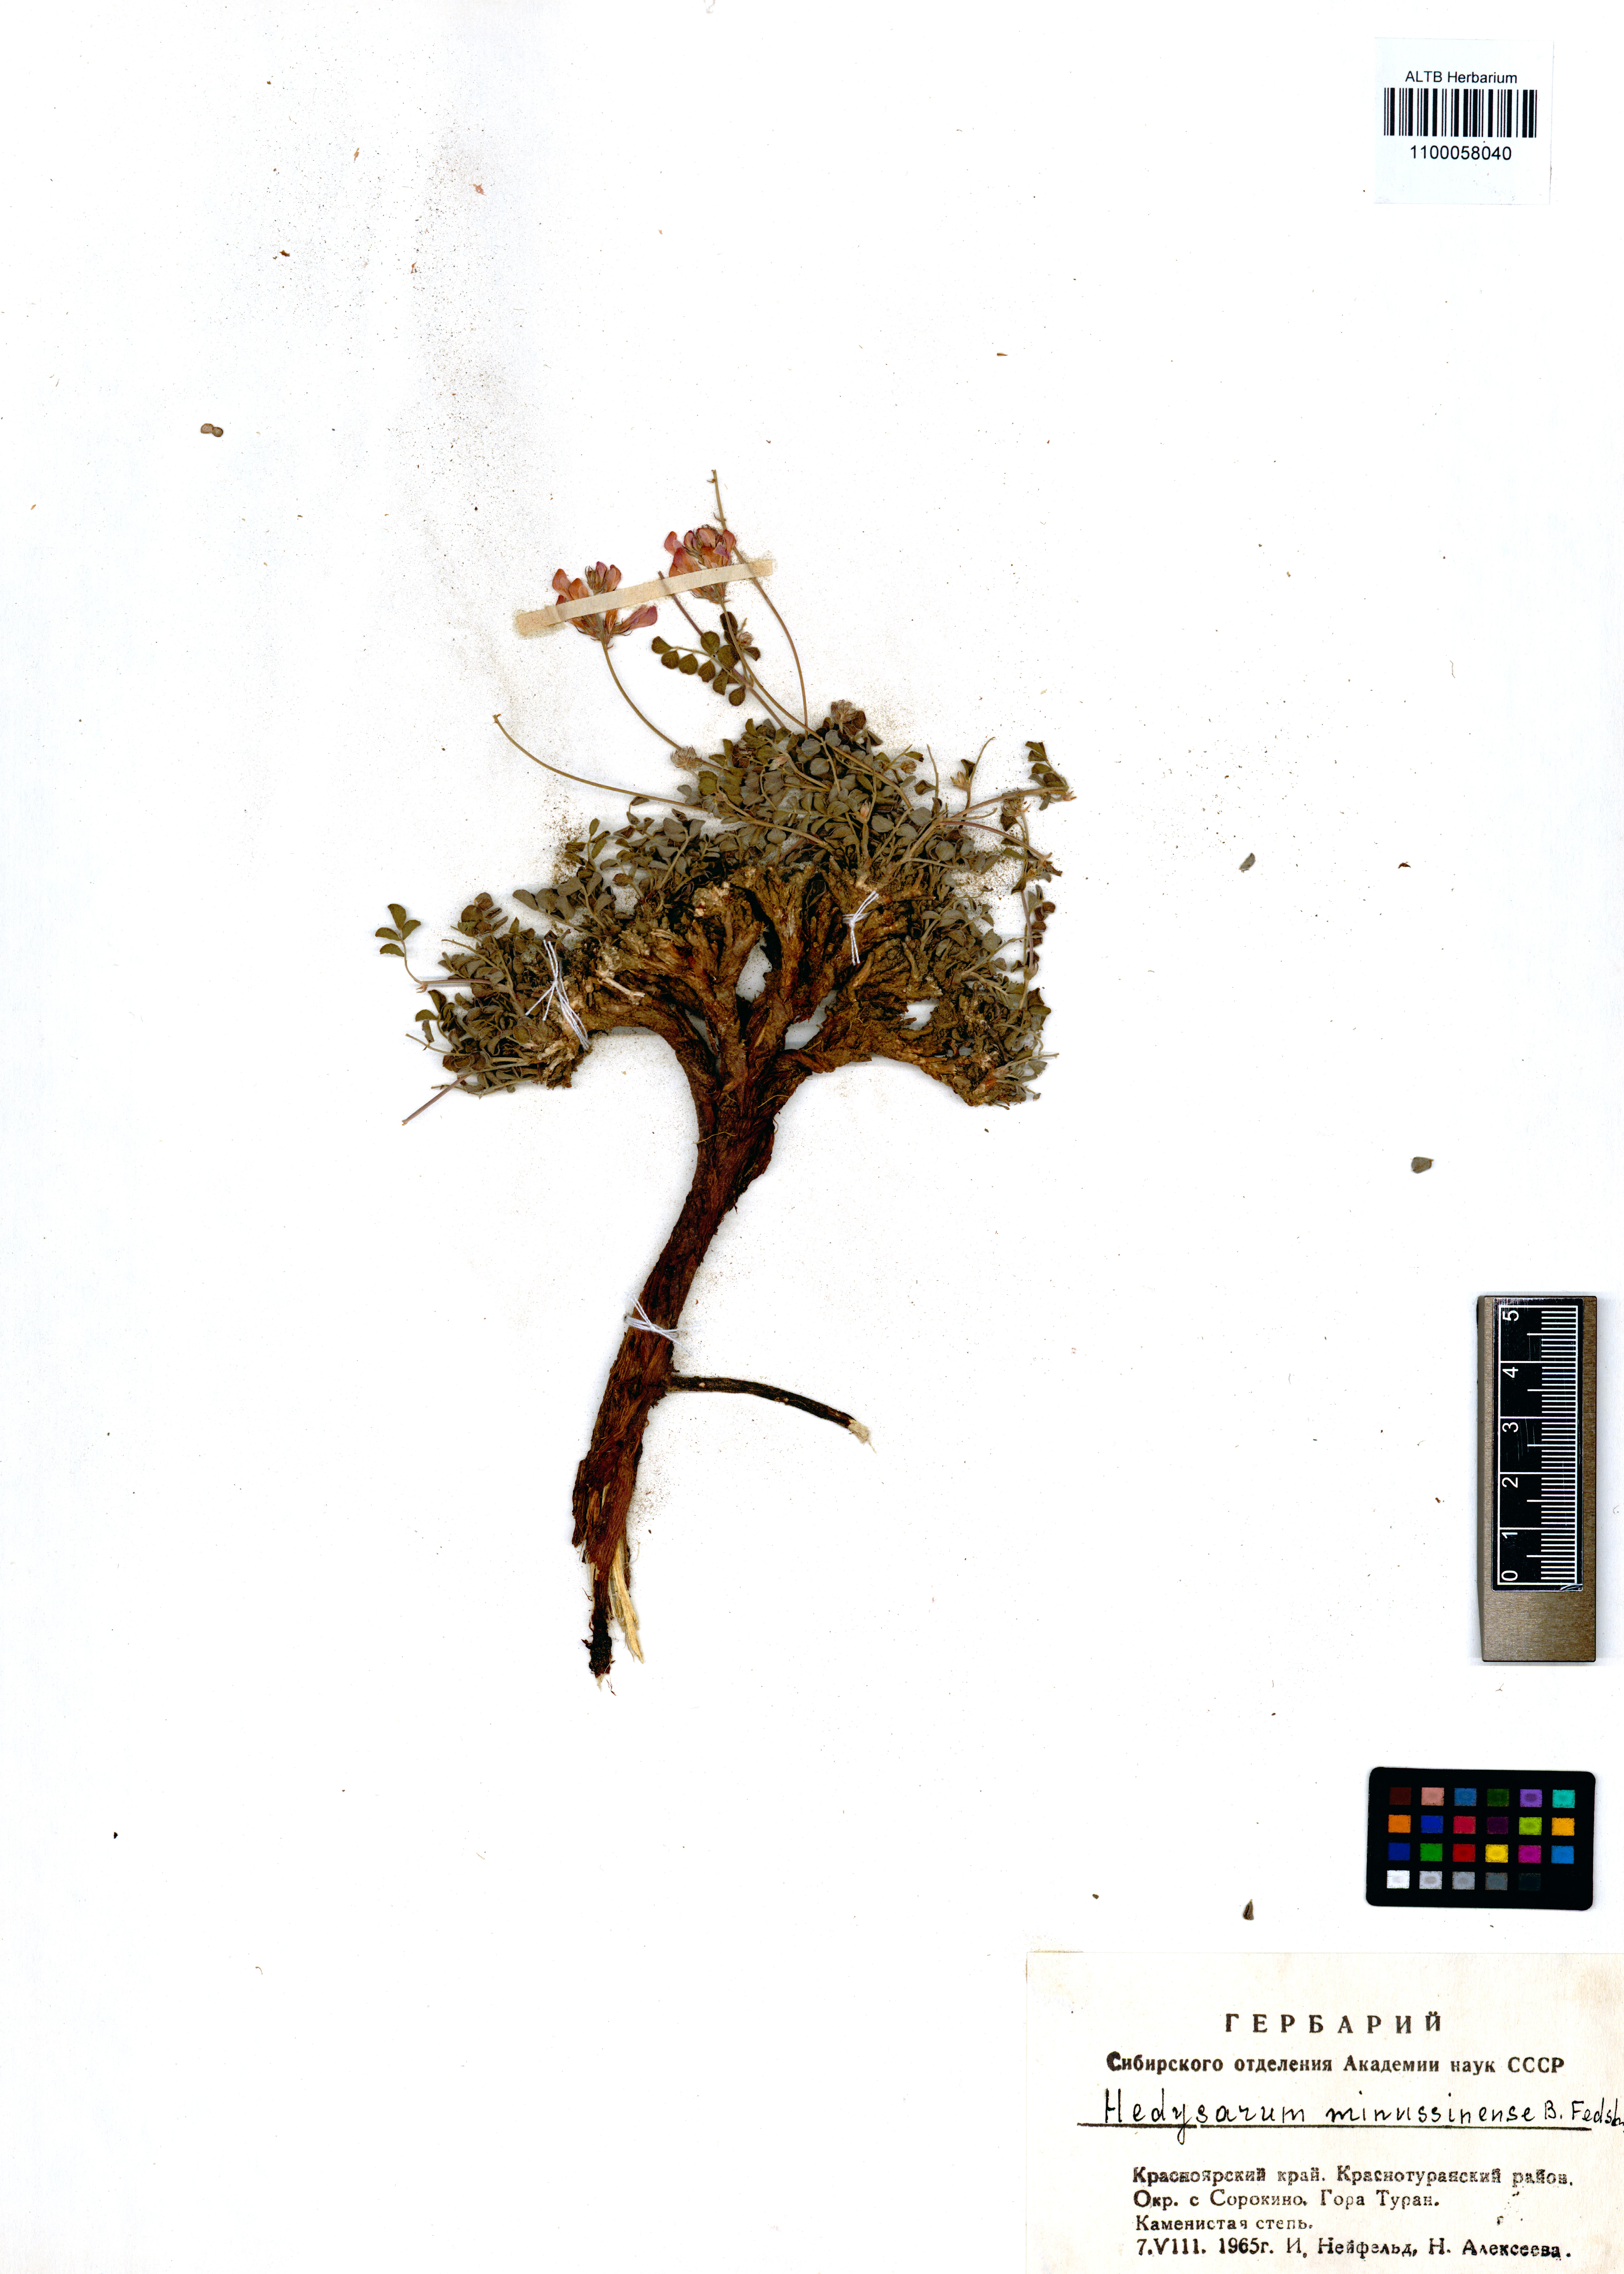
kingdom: Plantae
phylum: Tracheophyta
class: Magnoliopsida
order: Fabales
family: Fabaceae
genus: Hedysarum
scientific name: Hedysarum minussinense
